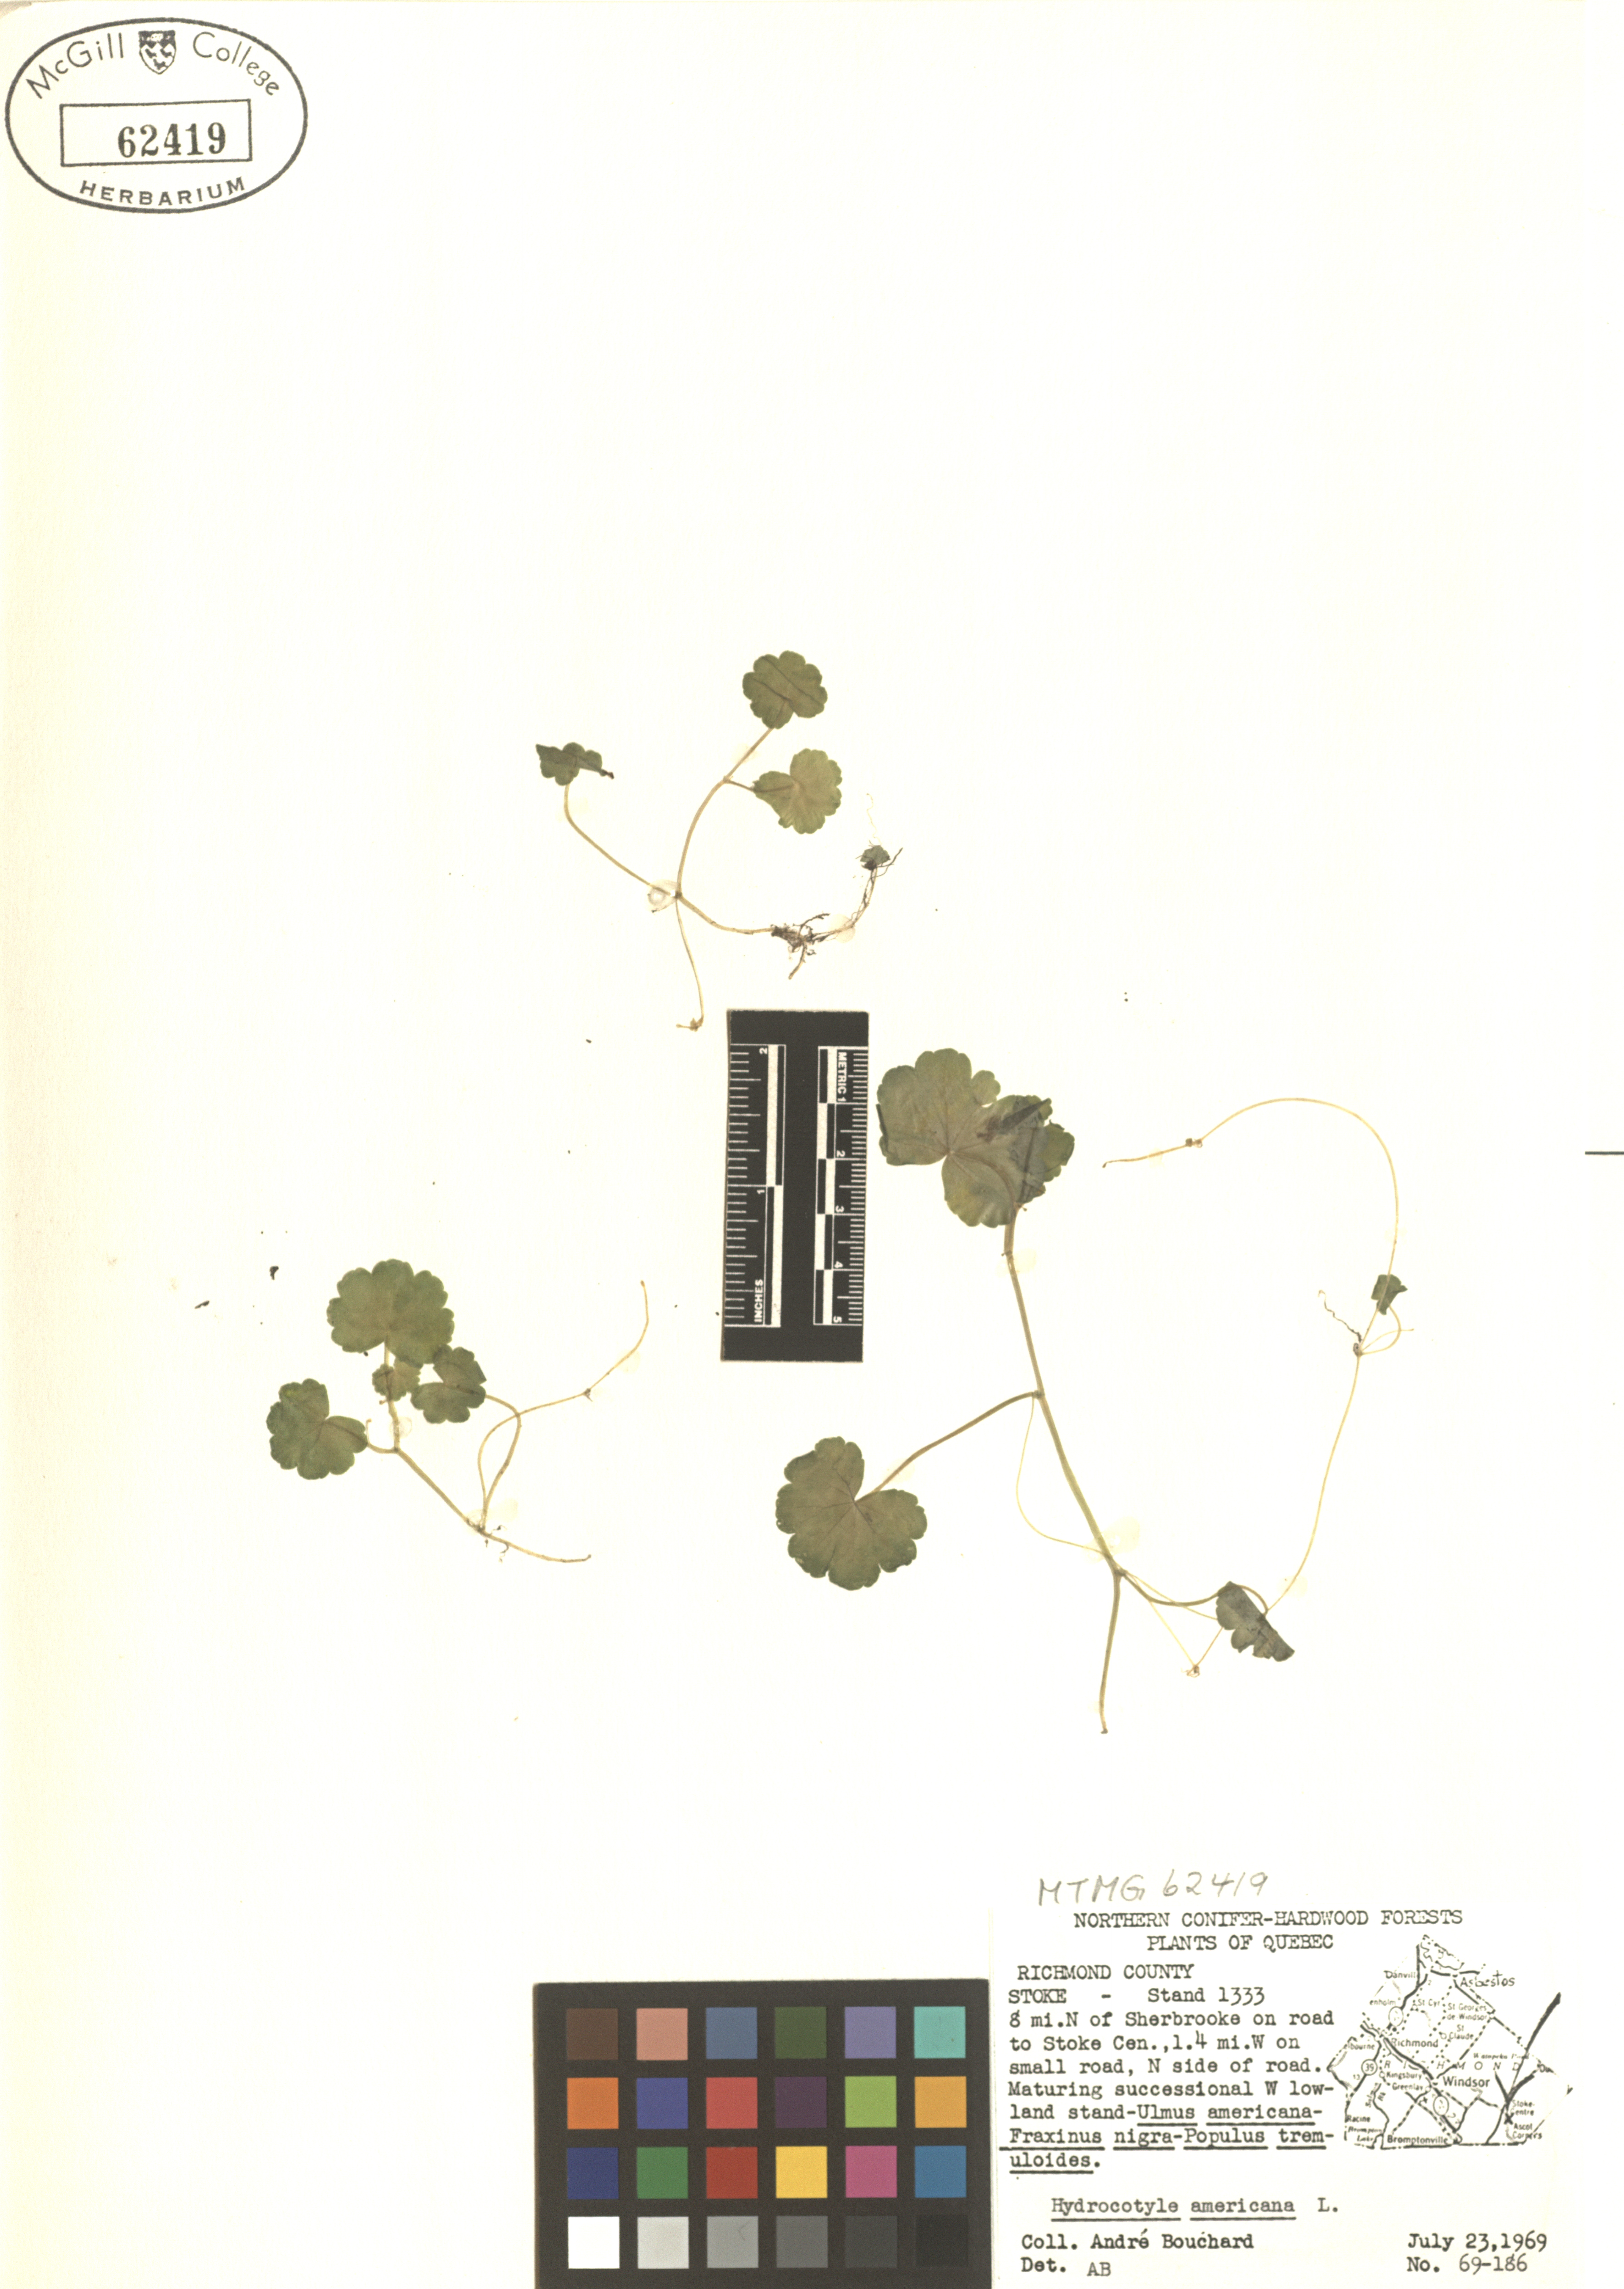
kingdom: Plantae
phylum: Tracheophyta
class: Magnoliopsida
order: Apiales
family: Araliaceae
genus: Hydrocotyle
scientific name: Hydrocotyle americana
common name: American water-pennywort
